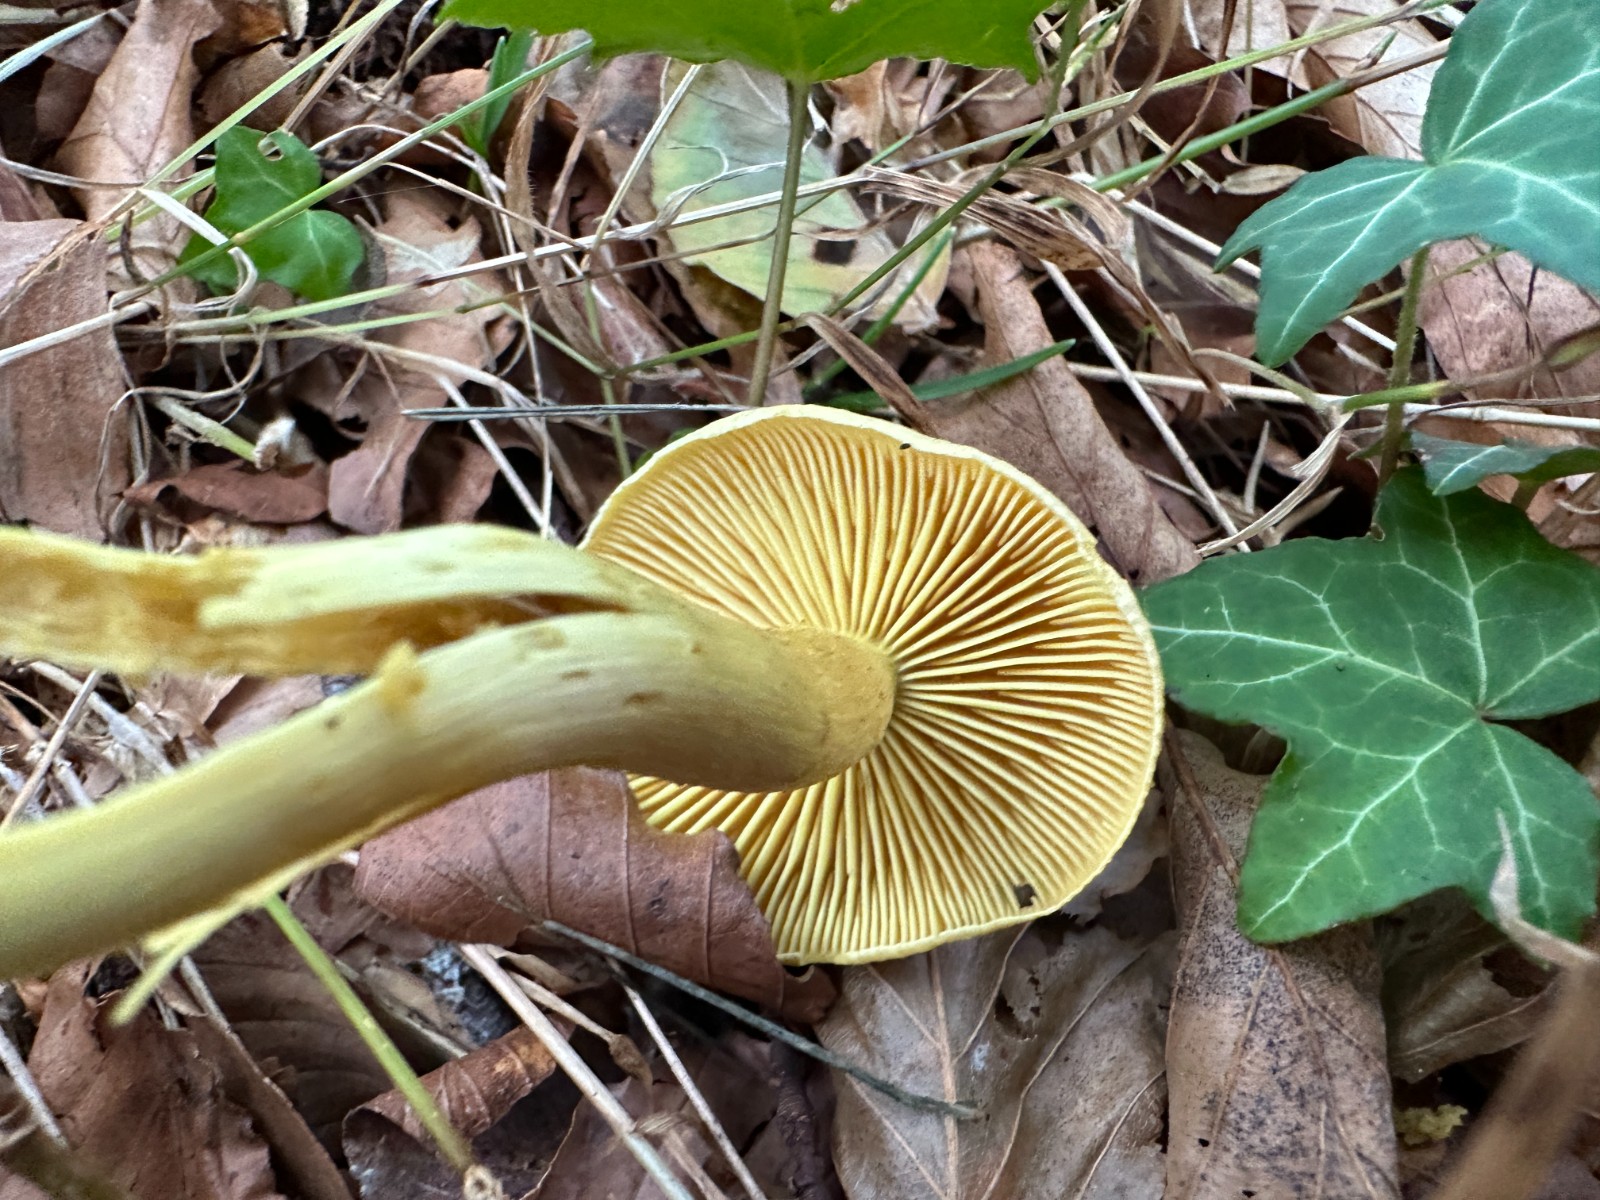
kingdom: Fungi
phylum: Basidiomycota
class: Agaricomycetes
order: Agaricales
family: Tricholomataceae
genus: Tricholoma
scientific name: Tricholoma sulphureum
